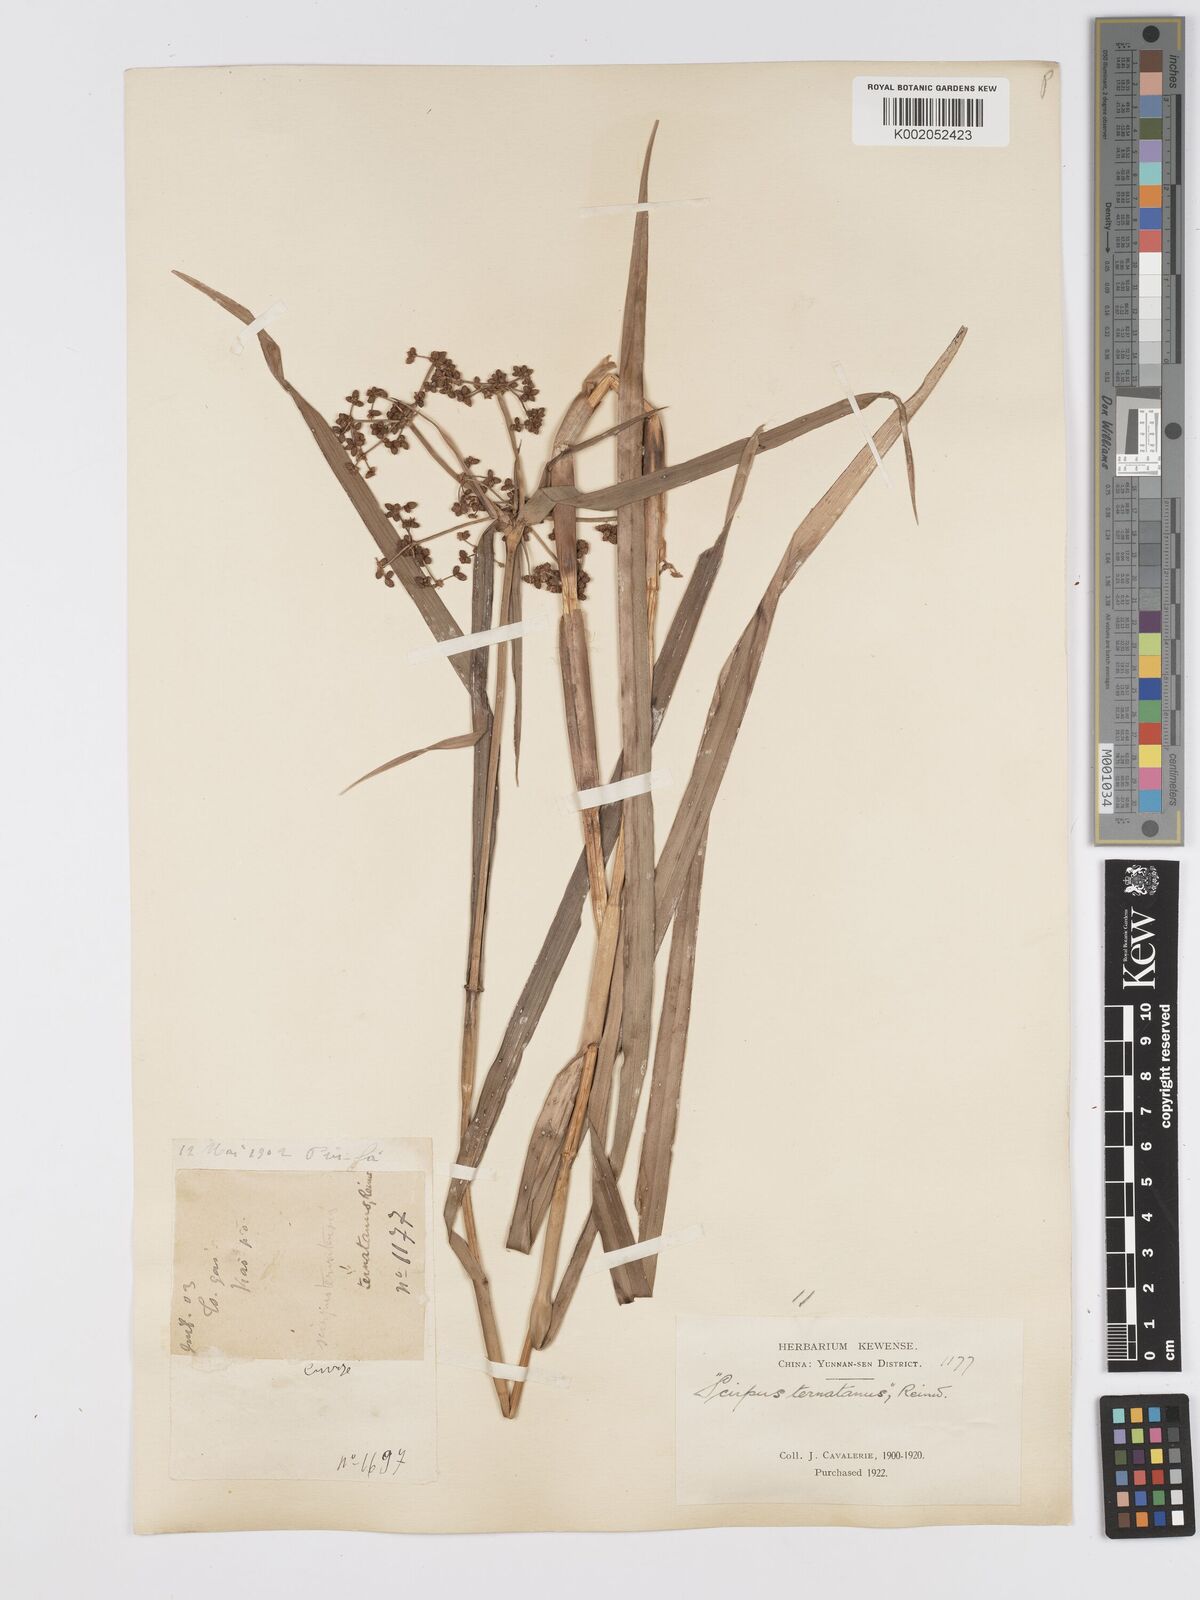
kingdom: Plantae
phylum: Tracheophyta
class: Liliopsida
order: Poales
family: Cyperaceae
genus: Scirpus
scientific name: Scirpus ternatanus
